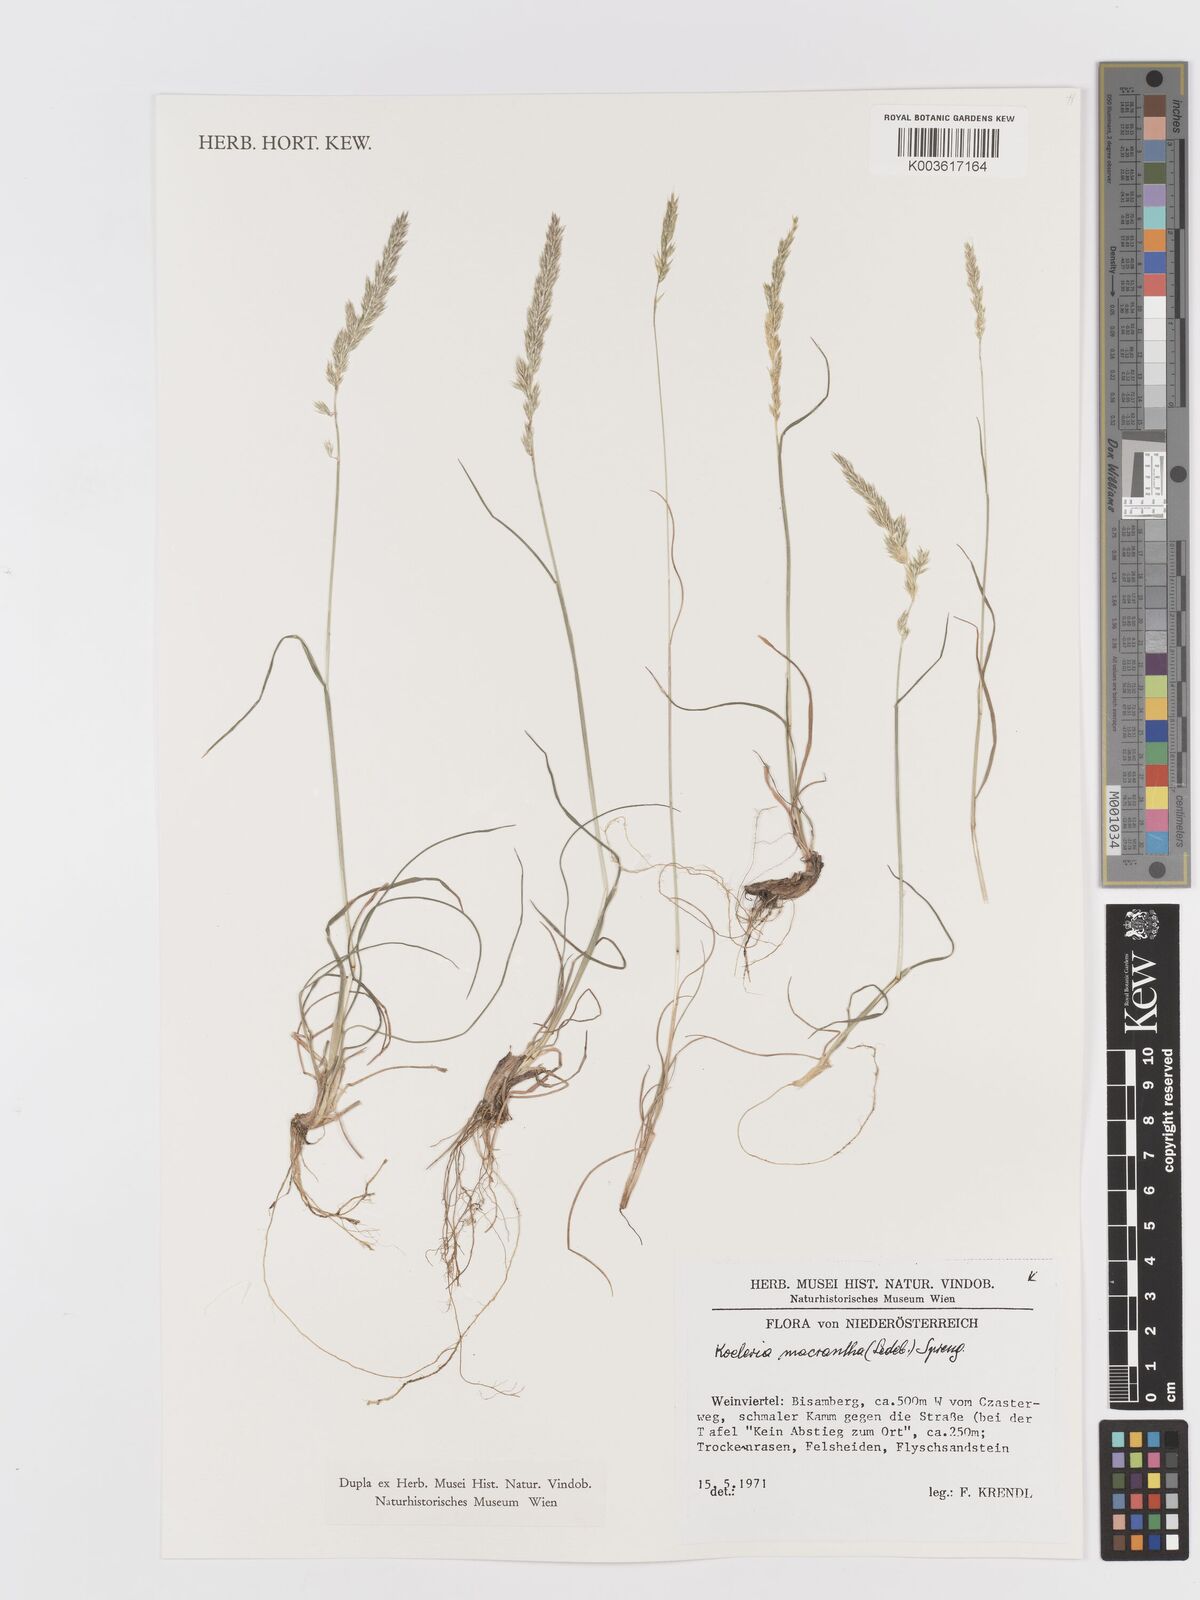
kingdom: Plantae
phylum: Tracheophyta
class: Liliopsida
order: Poales
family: Poaceae
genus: Koeleria
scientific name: Koeleria macrantha
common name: Crested hair-grass
